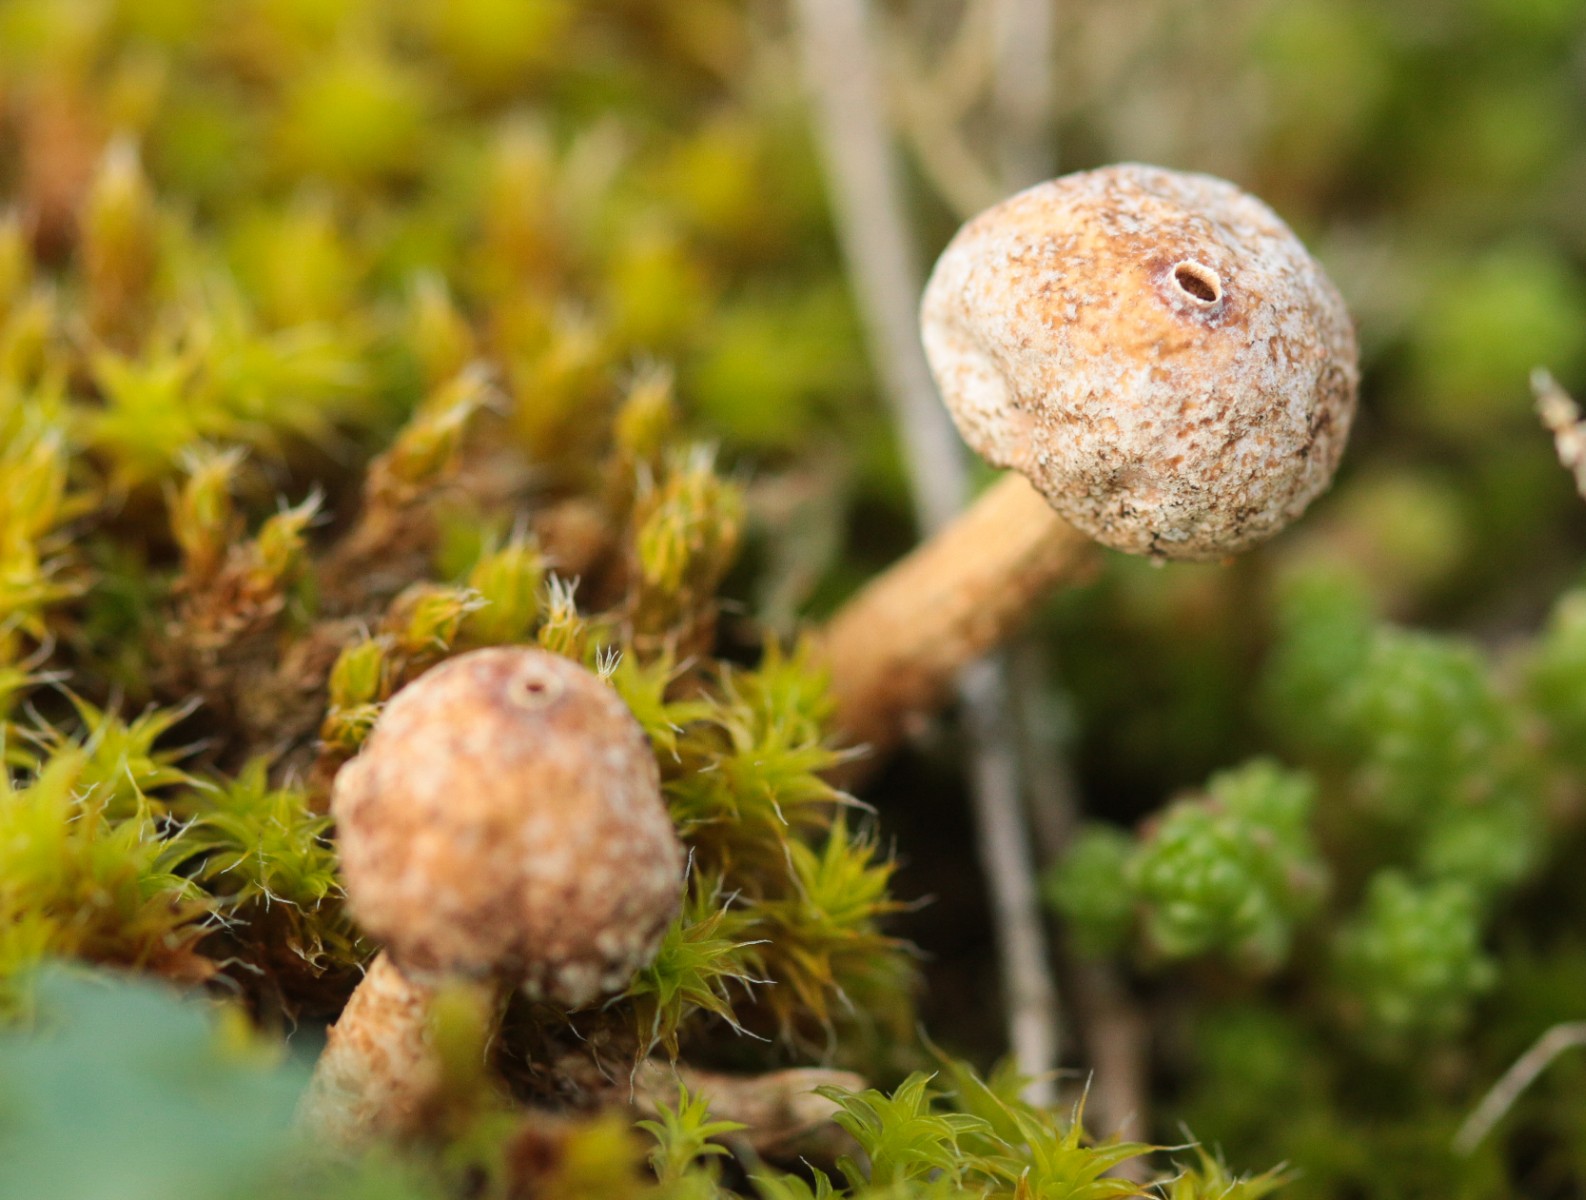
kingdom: Fungi
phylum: Basidiomycota
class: Agaricomycetes
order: Agaricales
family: Agaricaceae
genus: Tulostoma
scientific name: Tulostoma brumale
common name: vinter-stilkbovist
